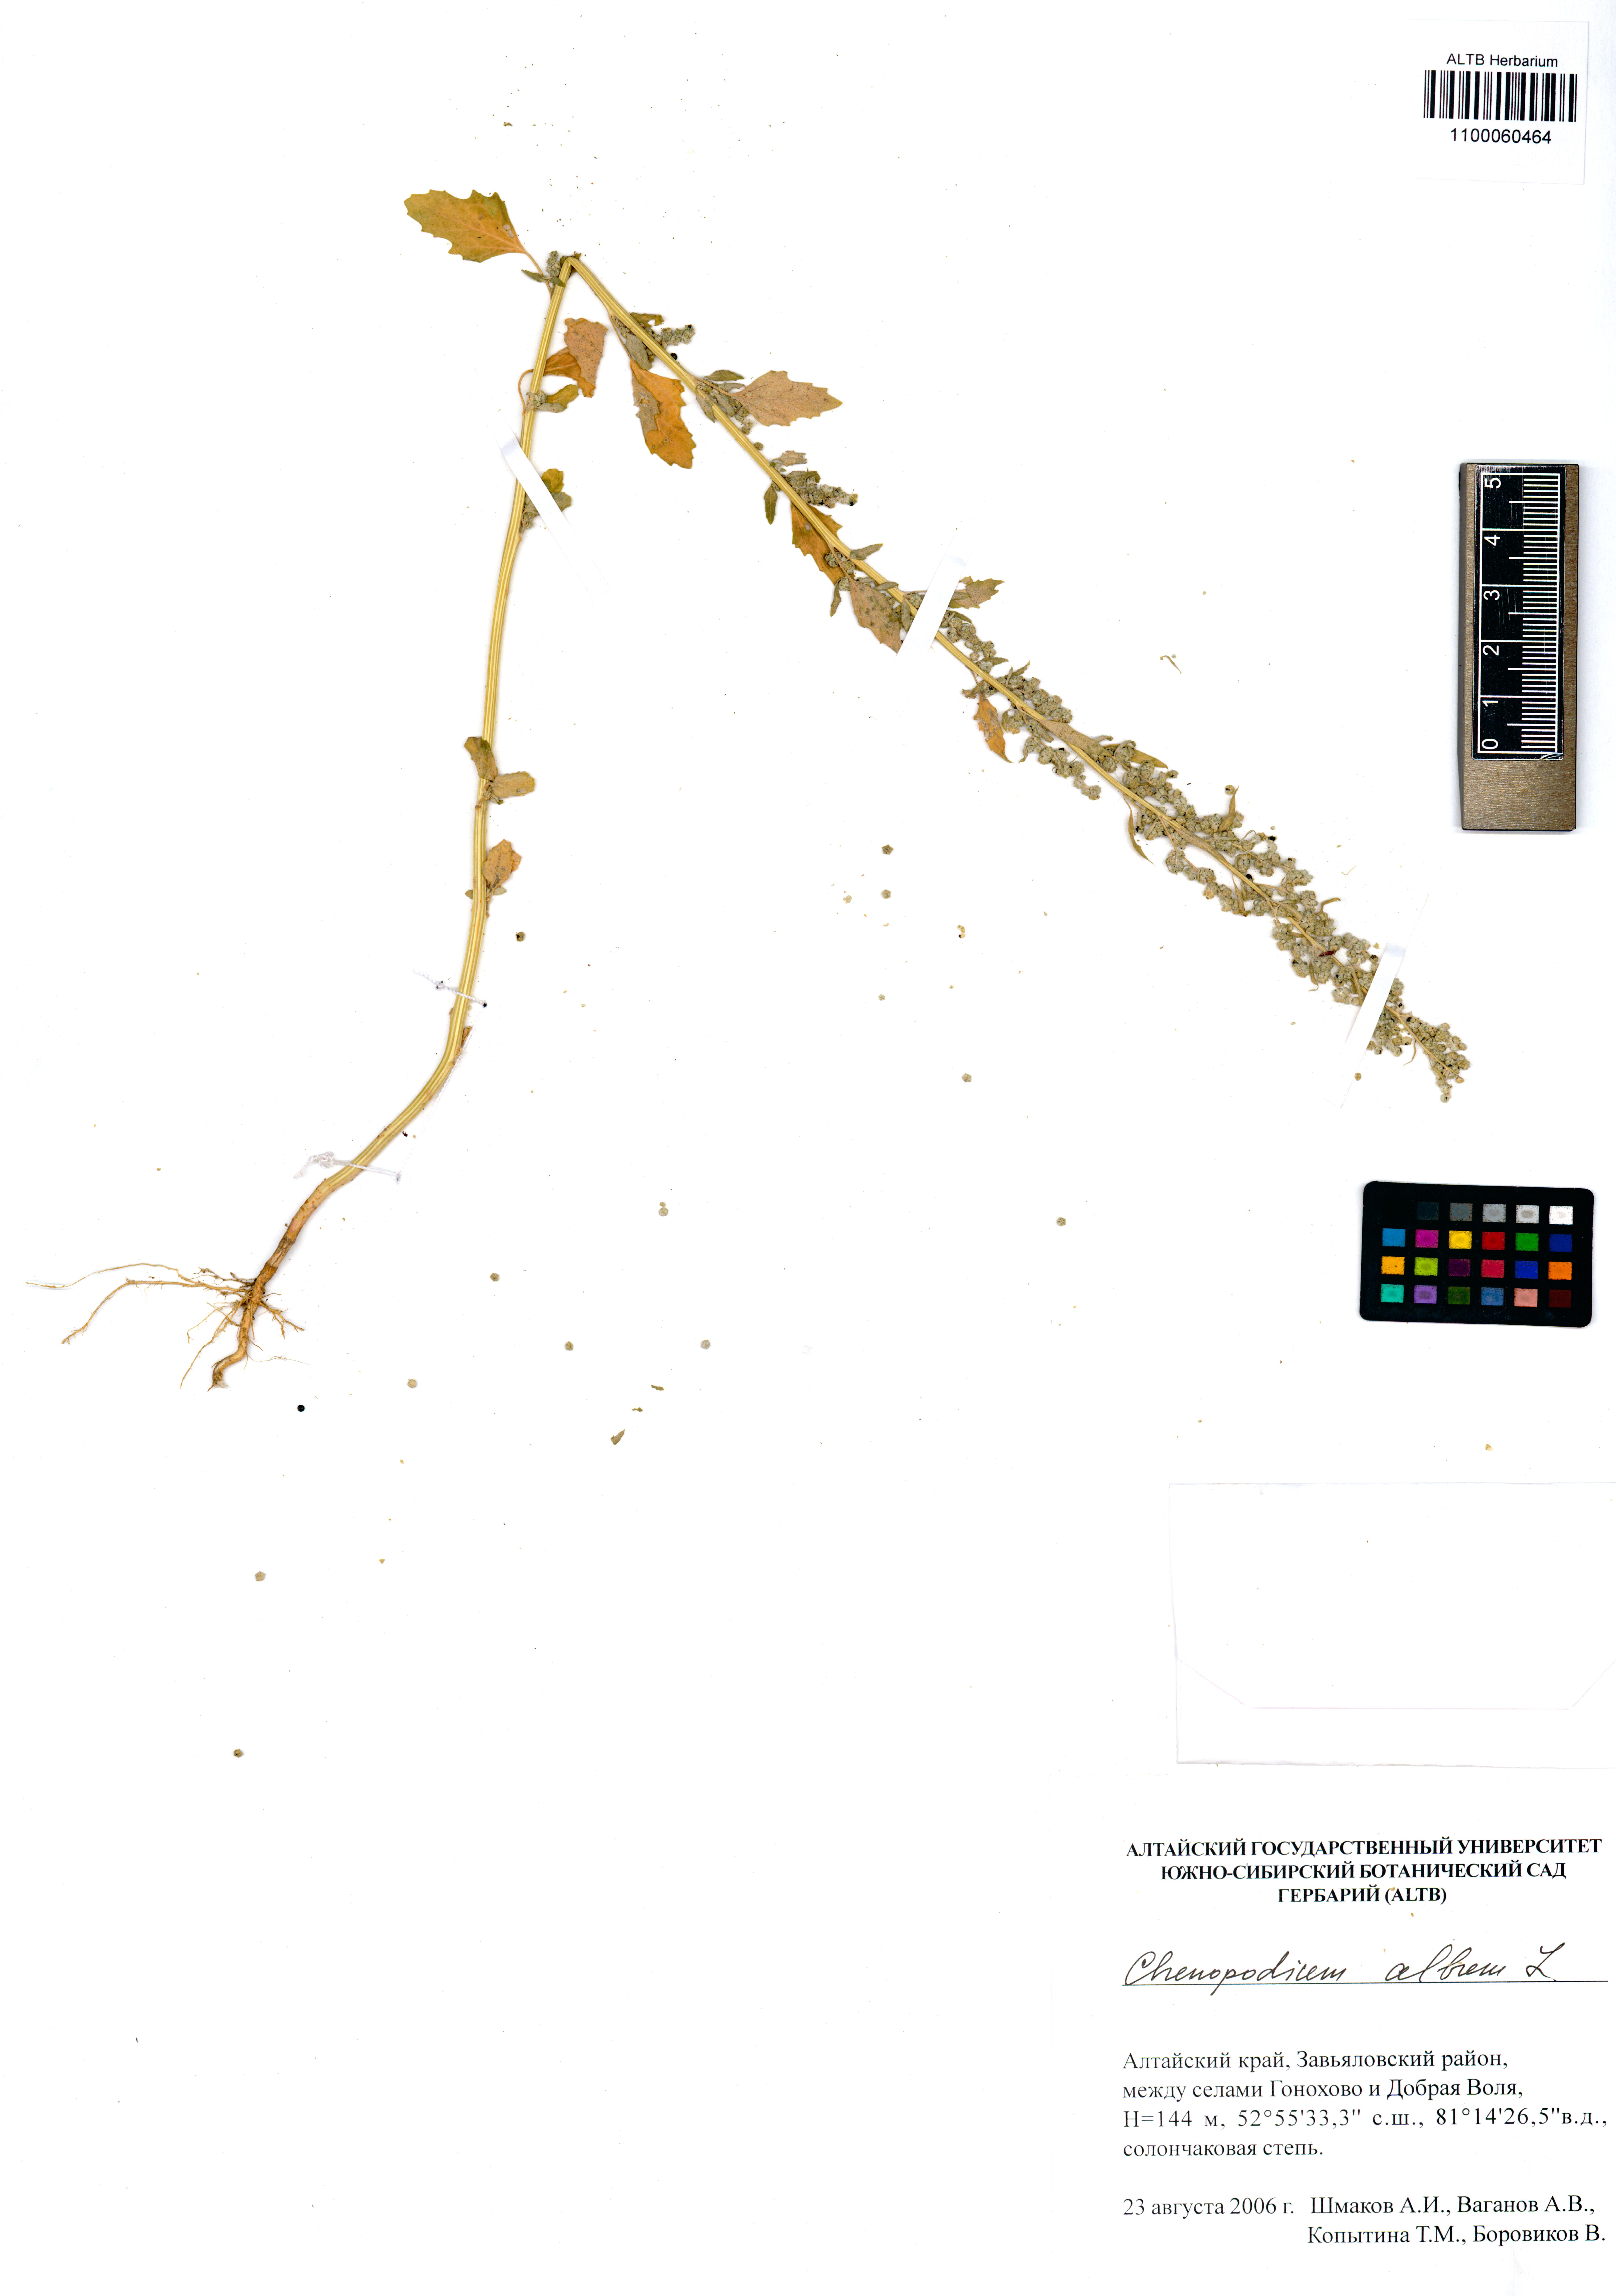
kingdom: Plantae
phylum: Tracheophyta
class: Magnoliopsida
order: Caryophyllales
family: Amaranthaceae
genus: Chenopodium
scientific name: Chenopodium album
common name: Fat-hen
